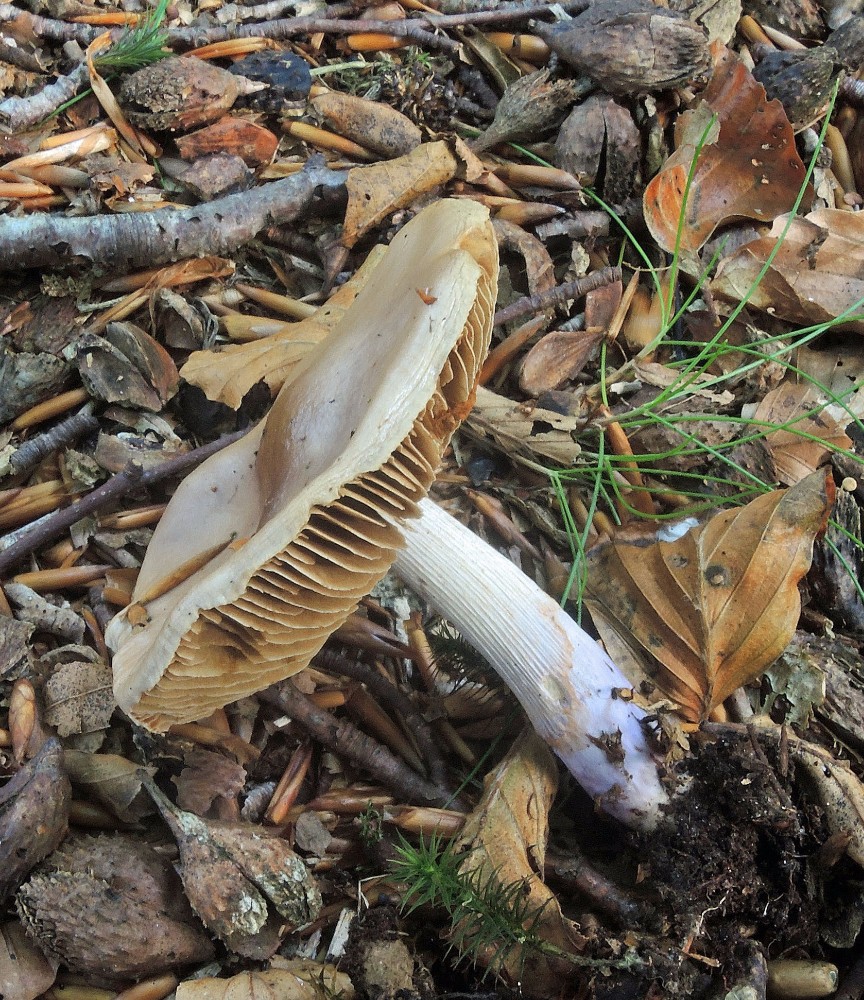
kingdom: Fungi
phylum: Basidiomycota
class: Agaricomycetes
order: Agaricales
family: Cortinariaceae
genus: Cortinarius
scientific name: Cortinarius elatior
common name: høj slørhat
